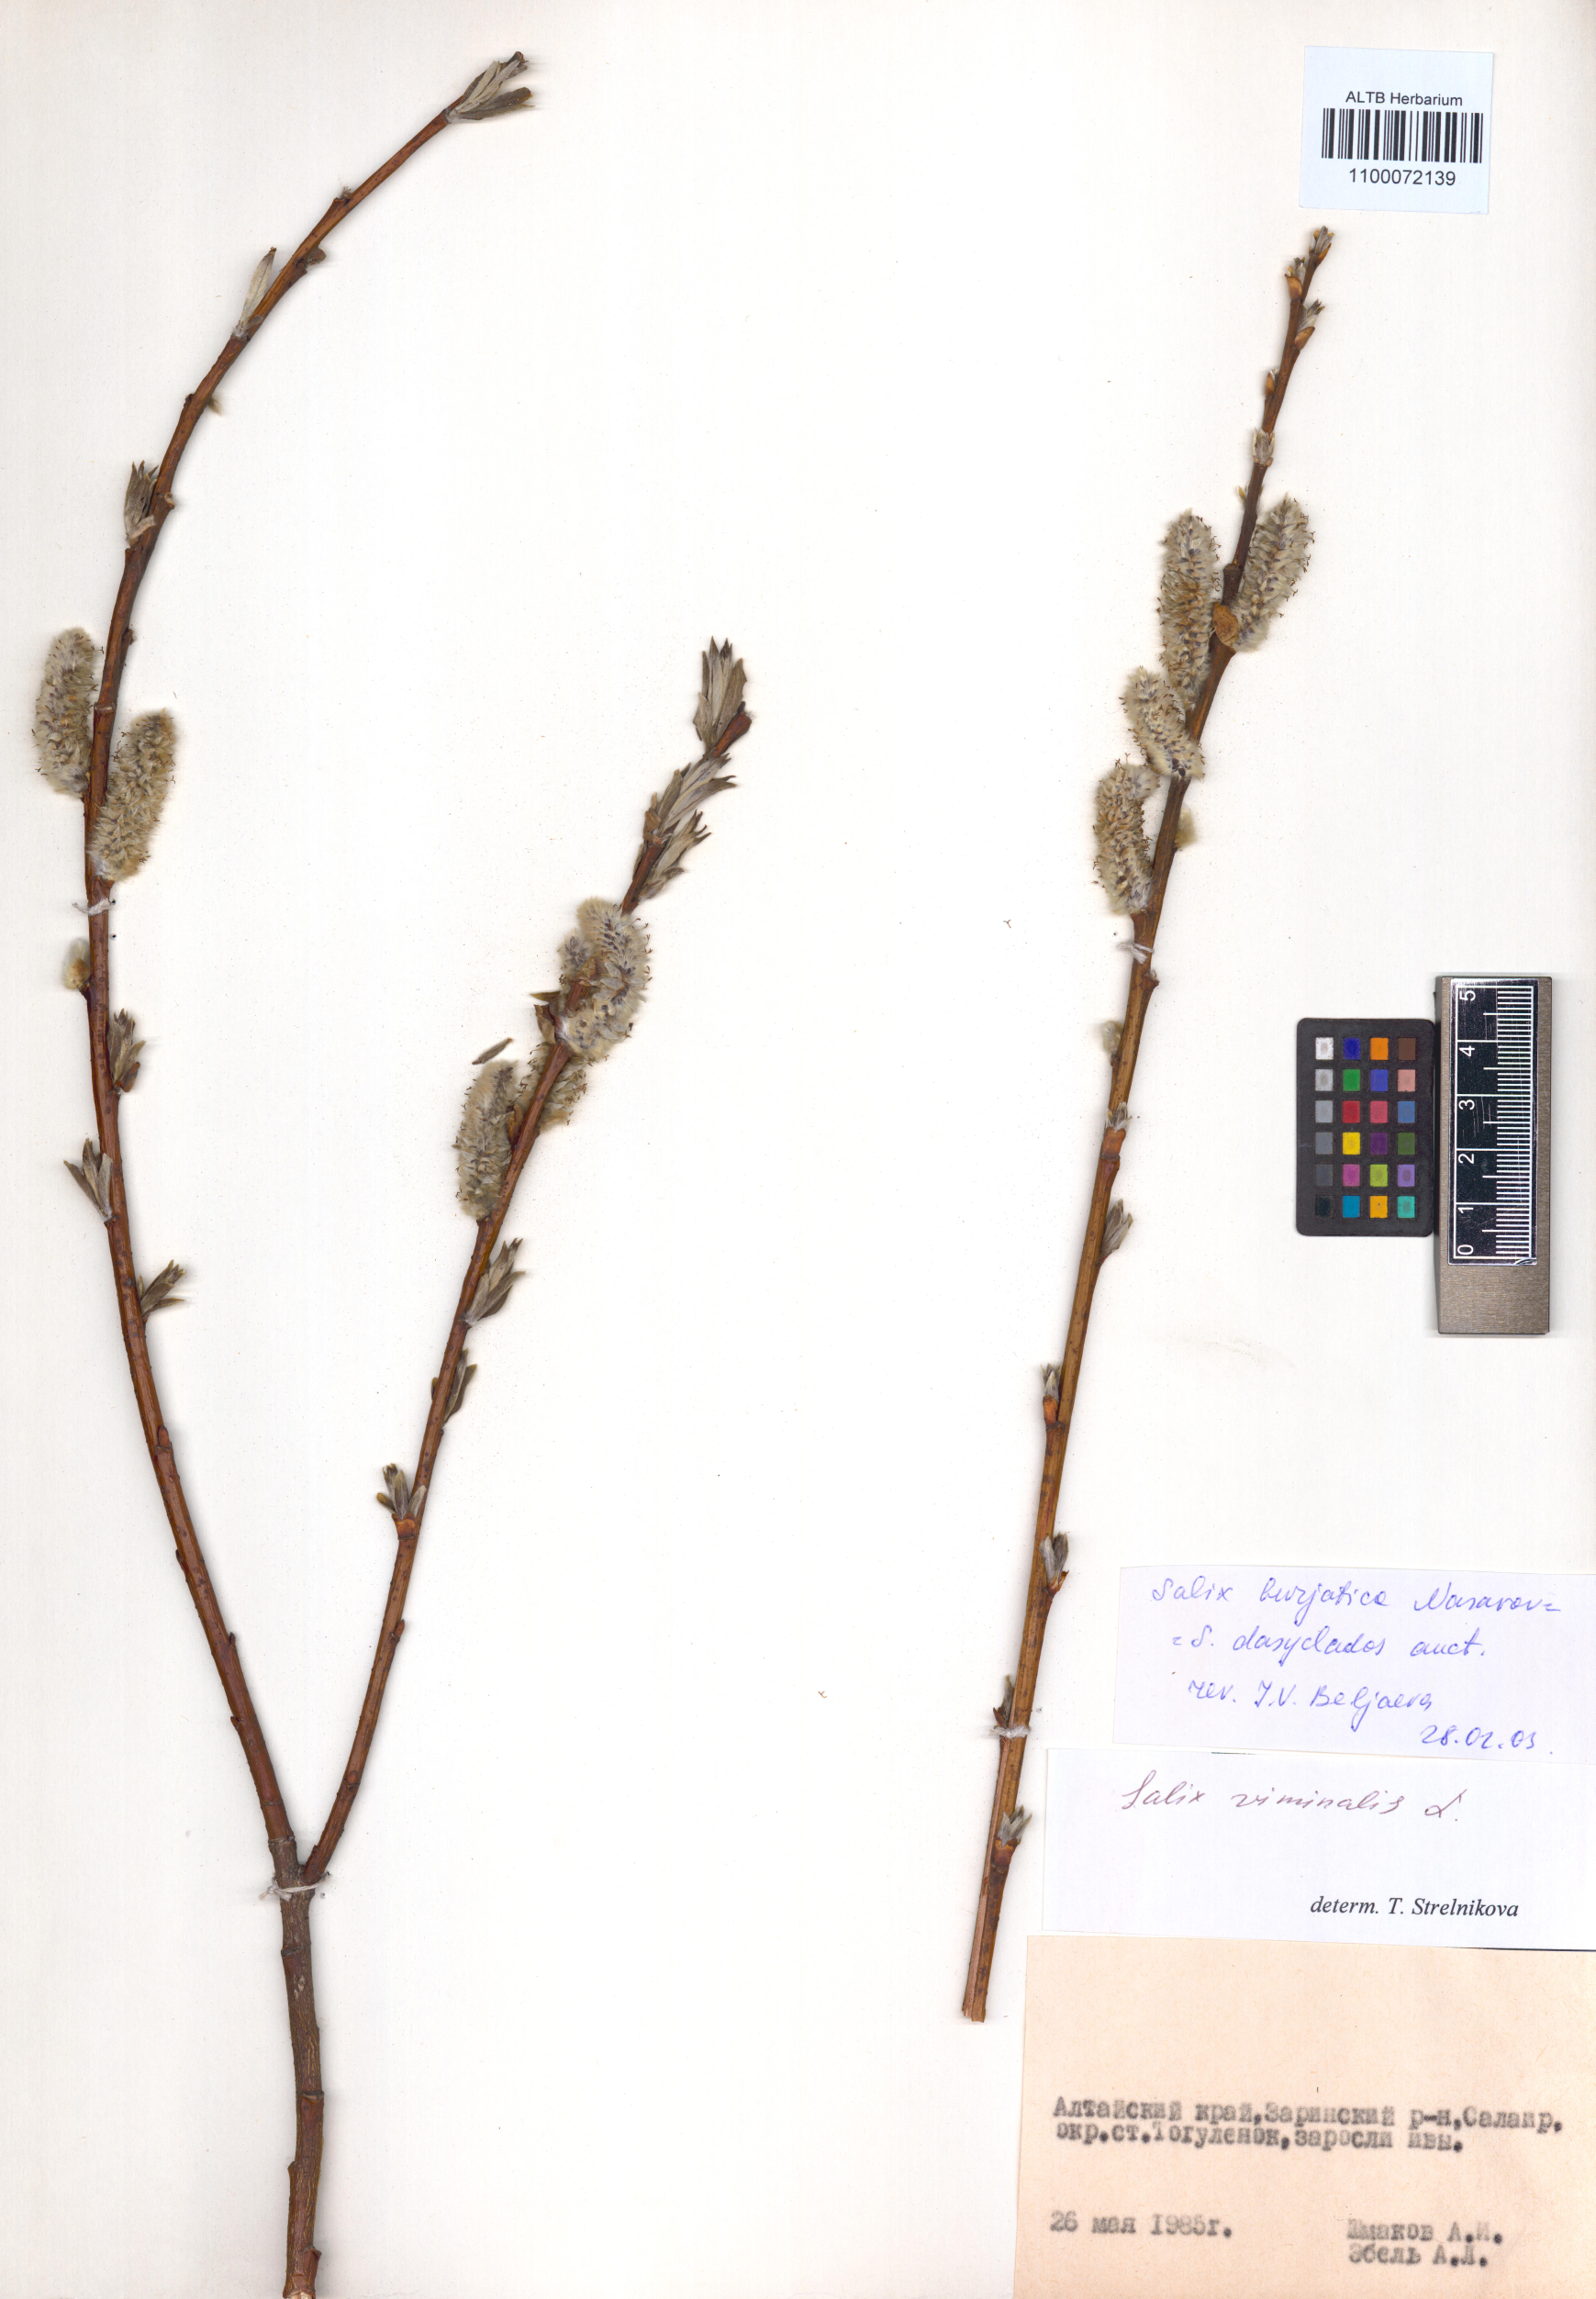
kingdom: Plantae
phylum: Tracheophyta
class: Magnoliopsida
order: Malpighiales
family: Salicaceae
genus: Salix
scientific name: Salix gmelinii
